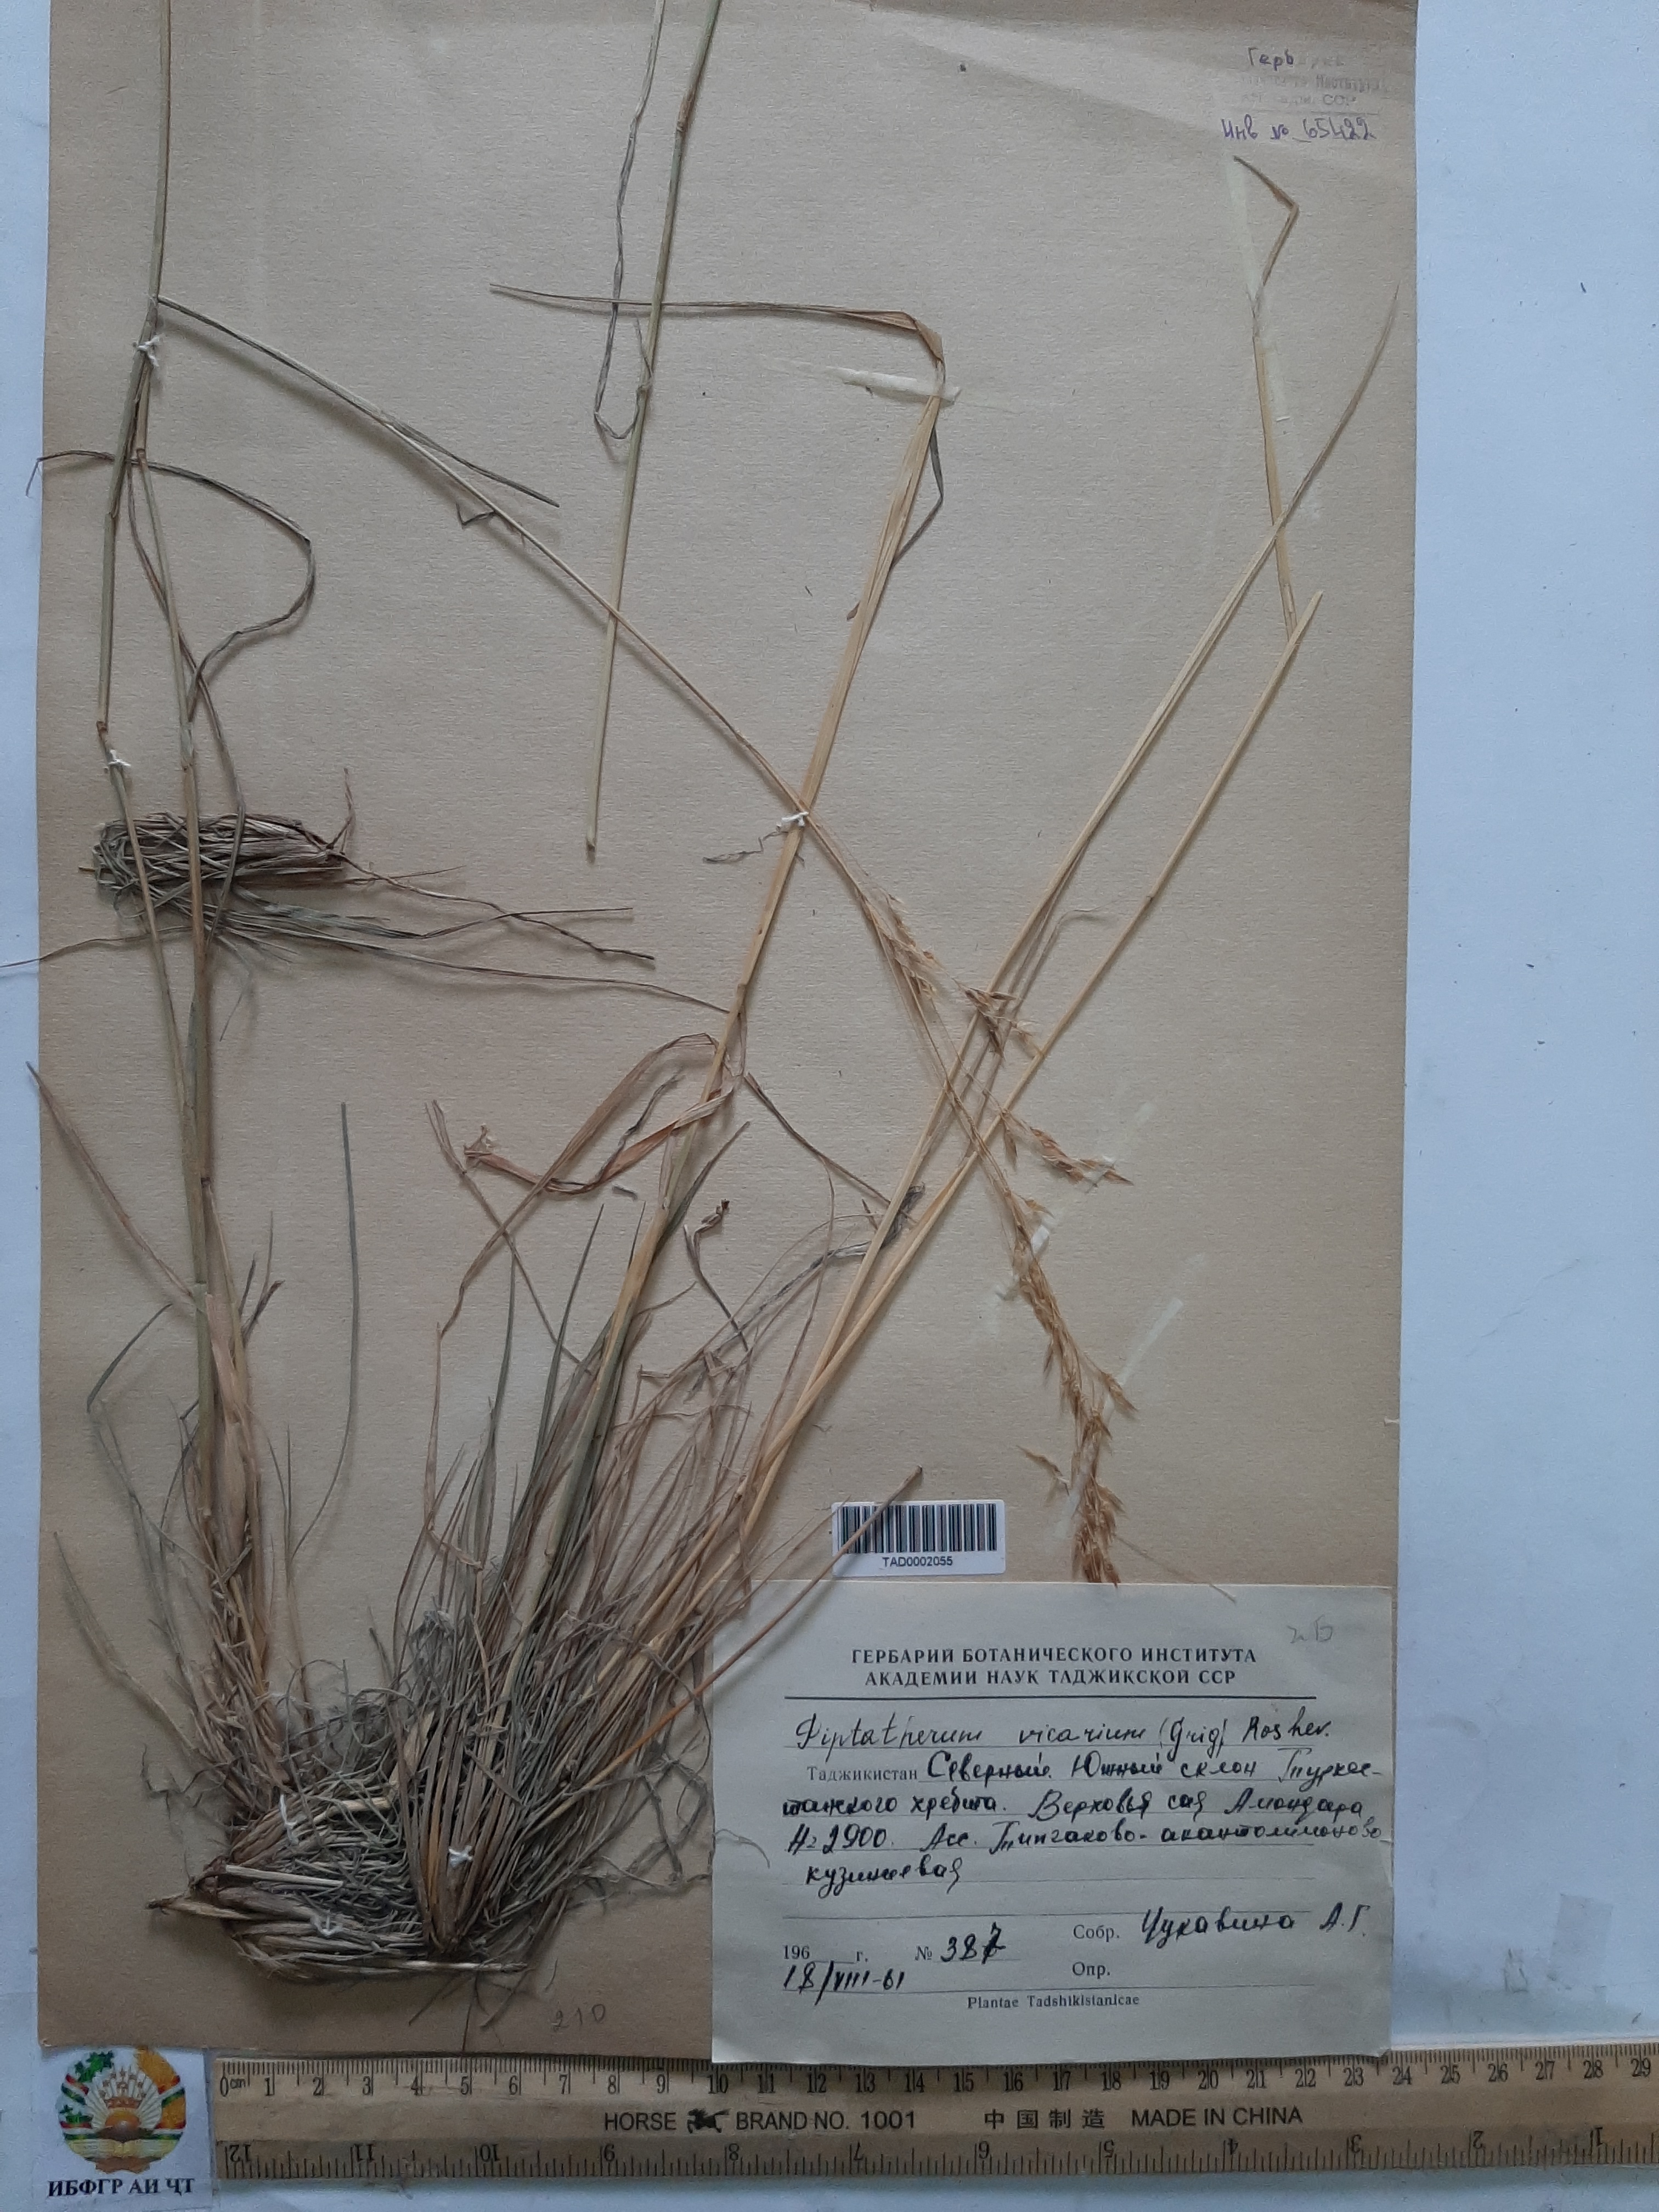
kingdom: Plantae
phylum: Tracheophyta
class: Liliopsida
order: Poales
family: Poaceae
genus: Piptatherum
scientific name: Piptatherum sogdianum
